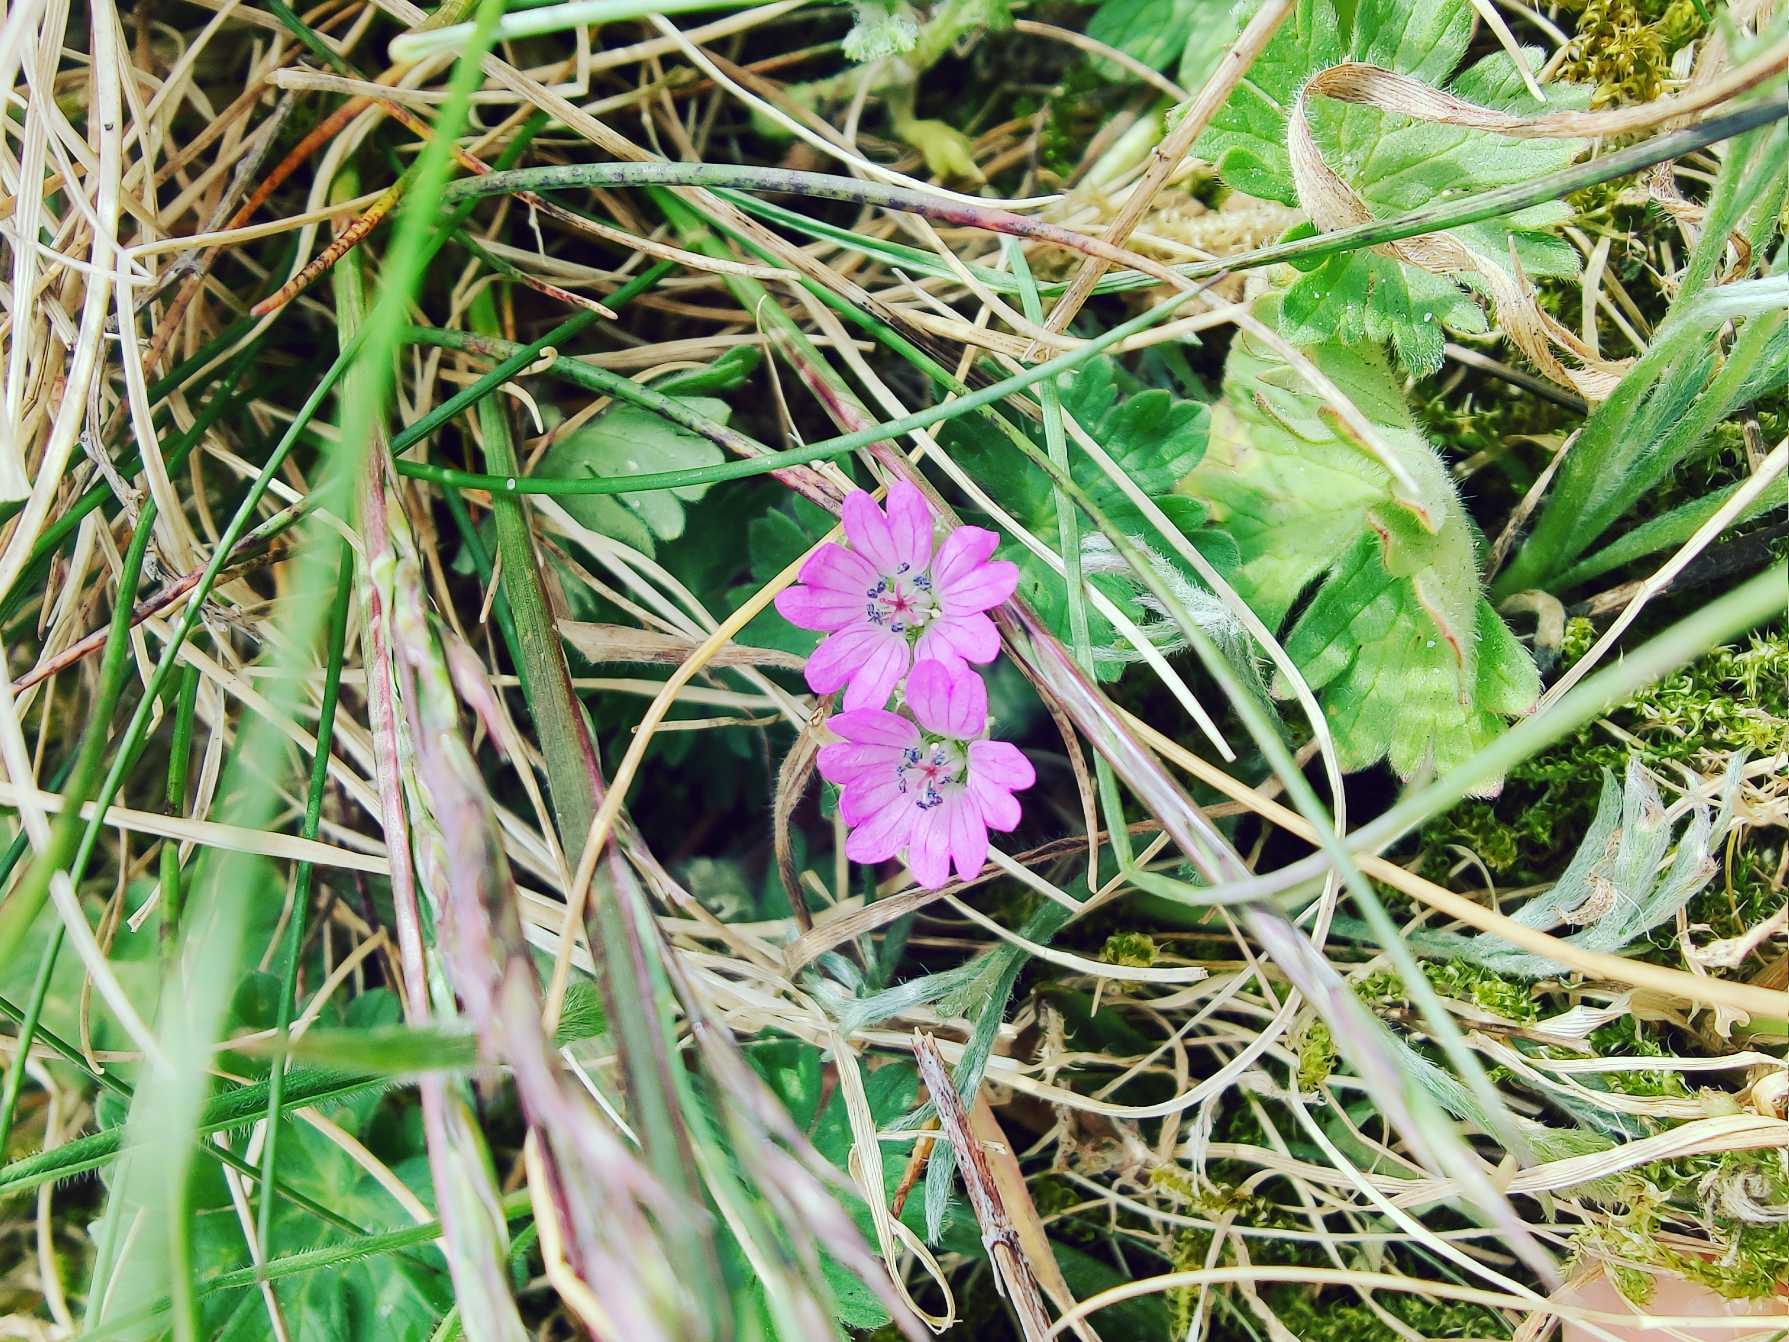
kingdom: Plantae
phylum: Tracheophyta
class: Magnoliopsida
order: Geraniales
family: Geraniaceae
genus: Geranium
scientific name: Geranium molle
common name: Blød storkenæb
